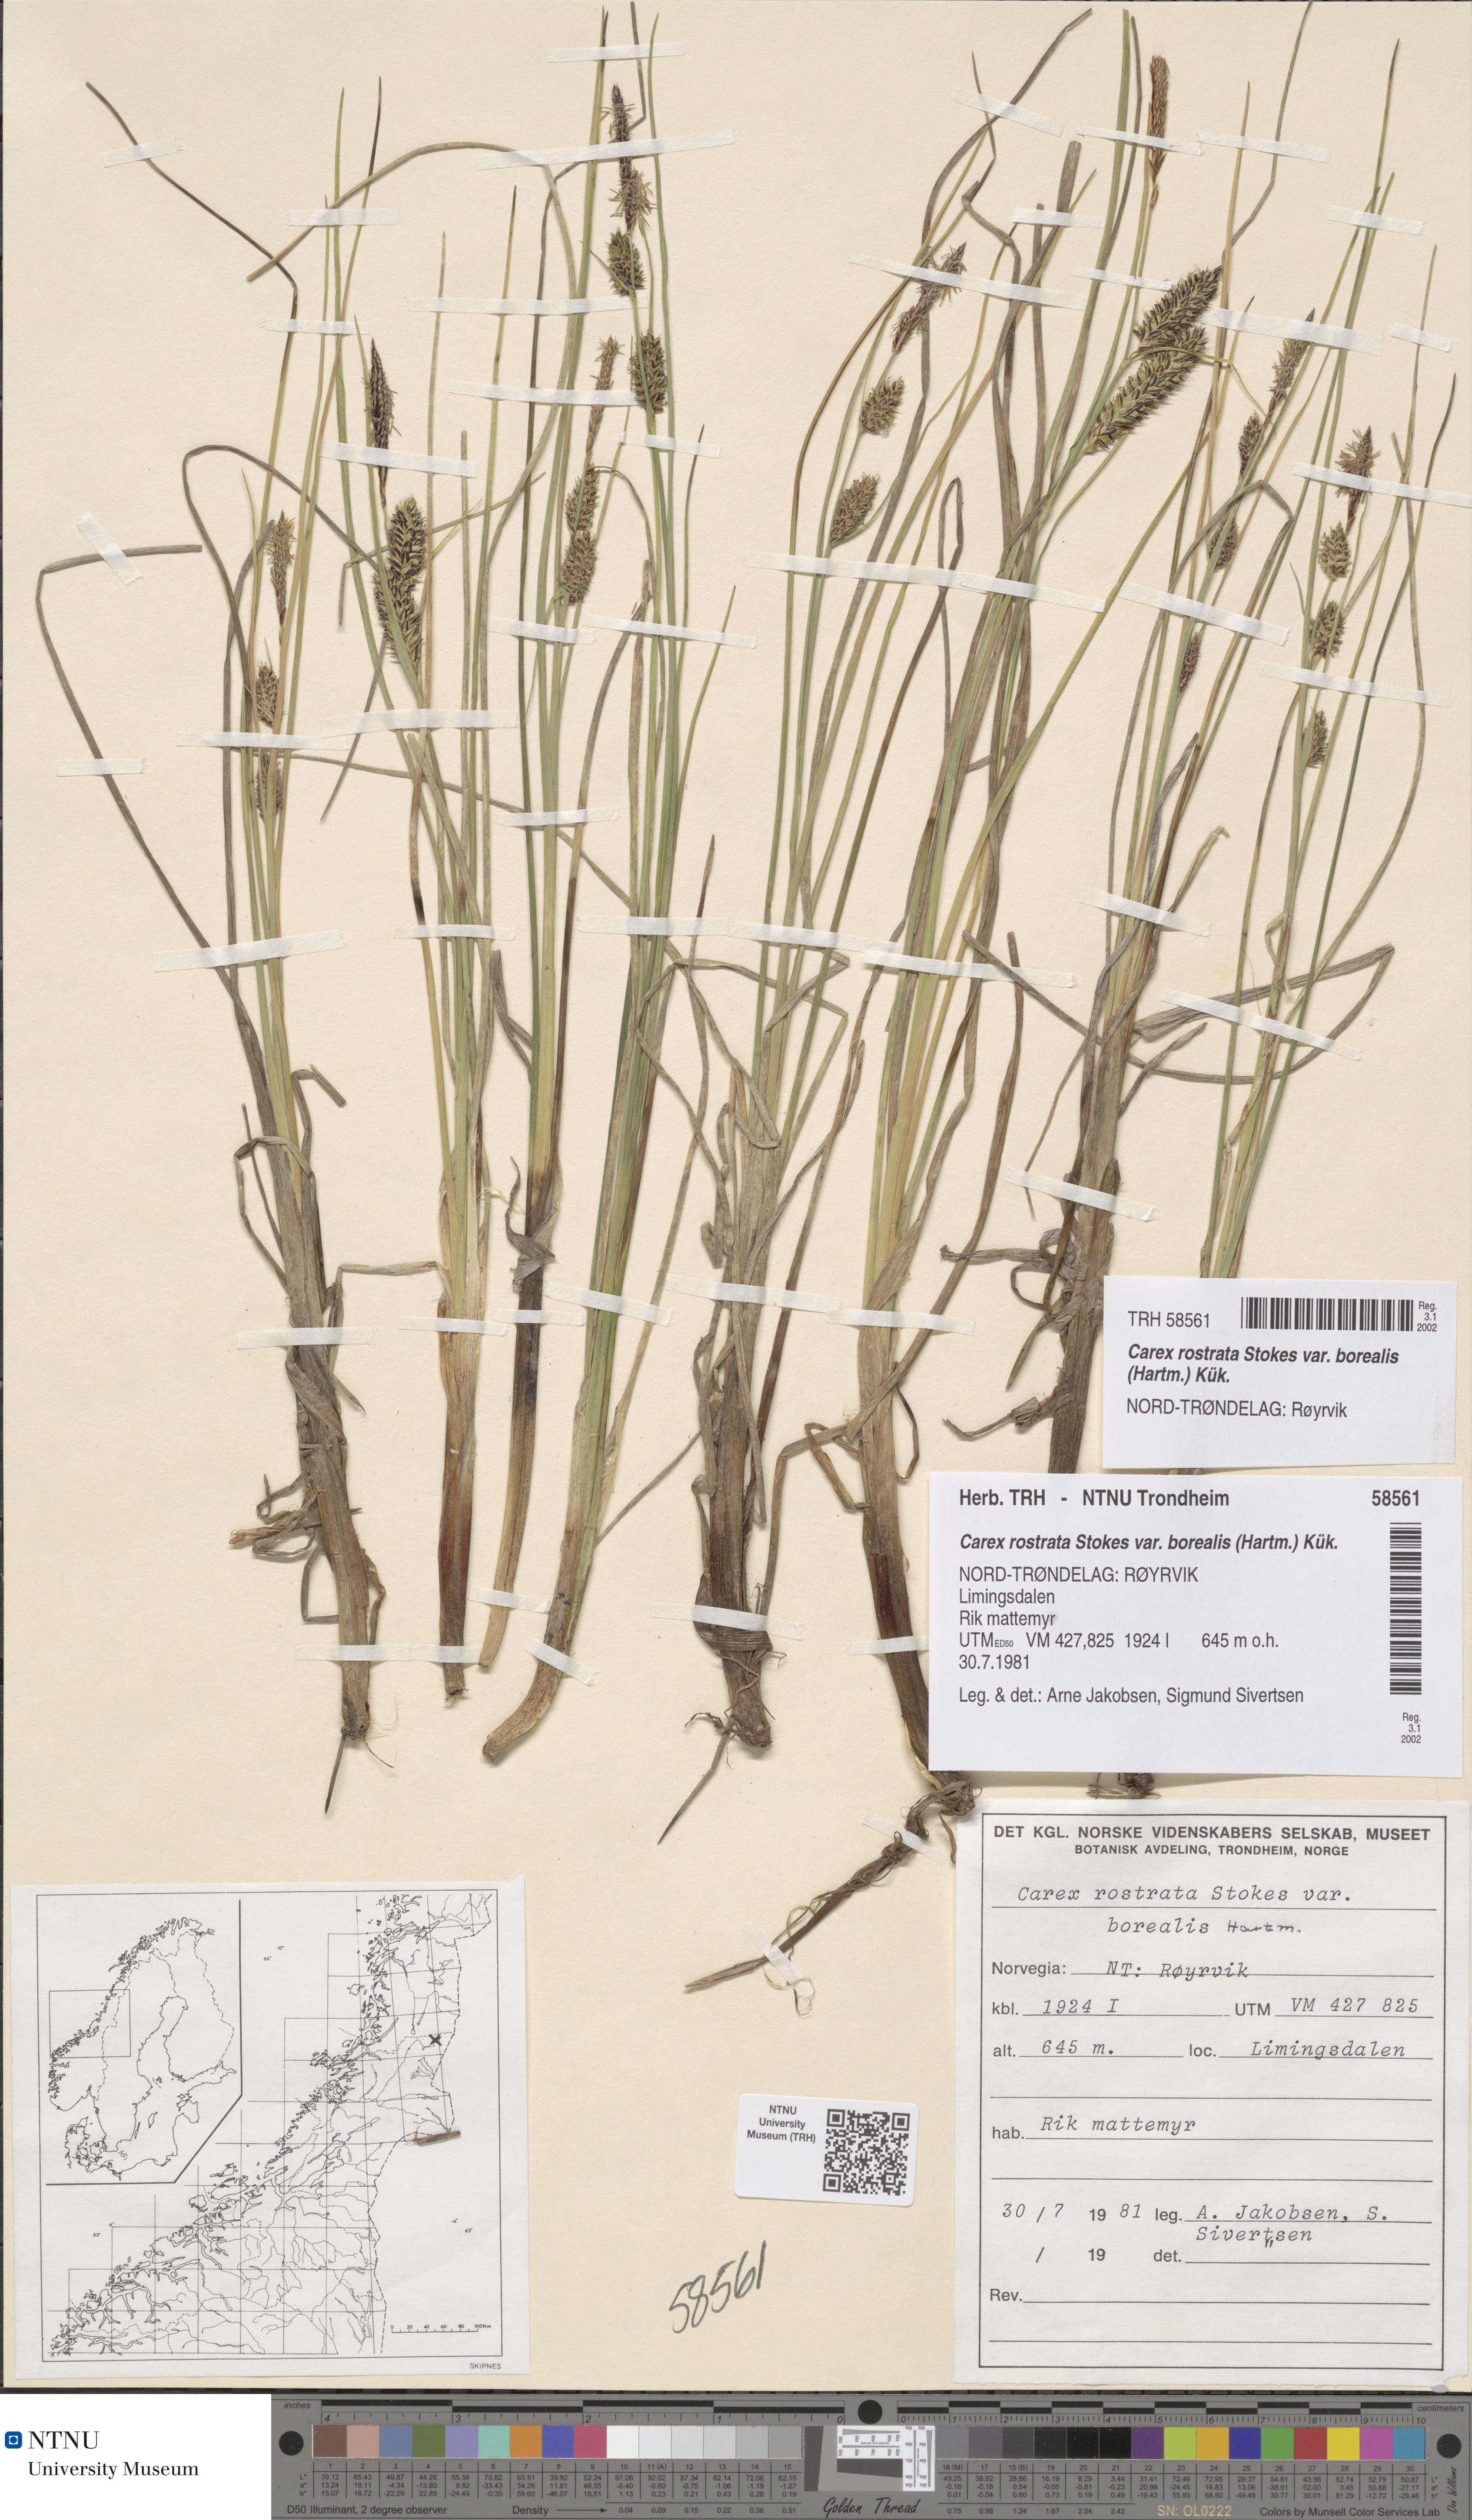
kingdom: Plantae
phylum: Tracheophyta
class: Liliopsida
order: Poales
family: Cyperaceae
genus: Carex
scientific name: Carex saamica
